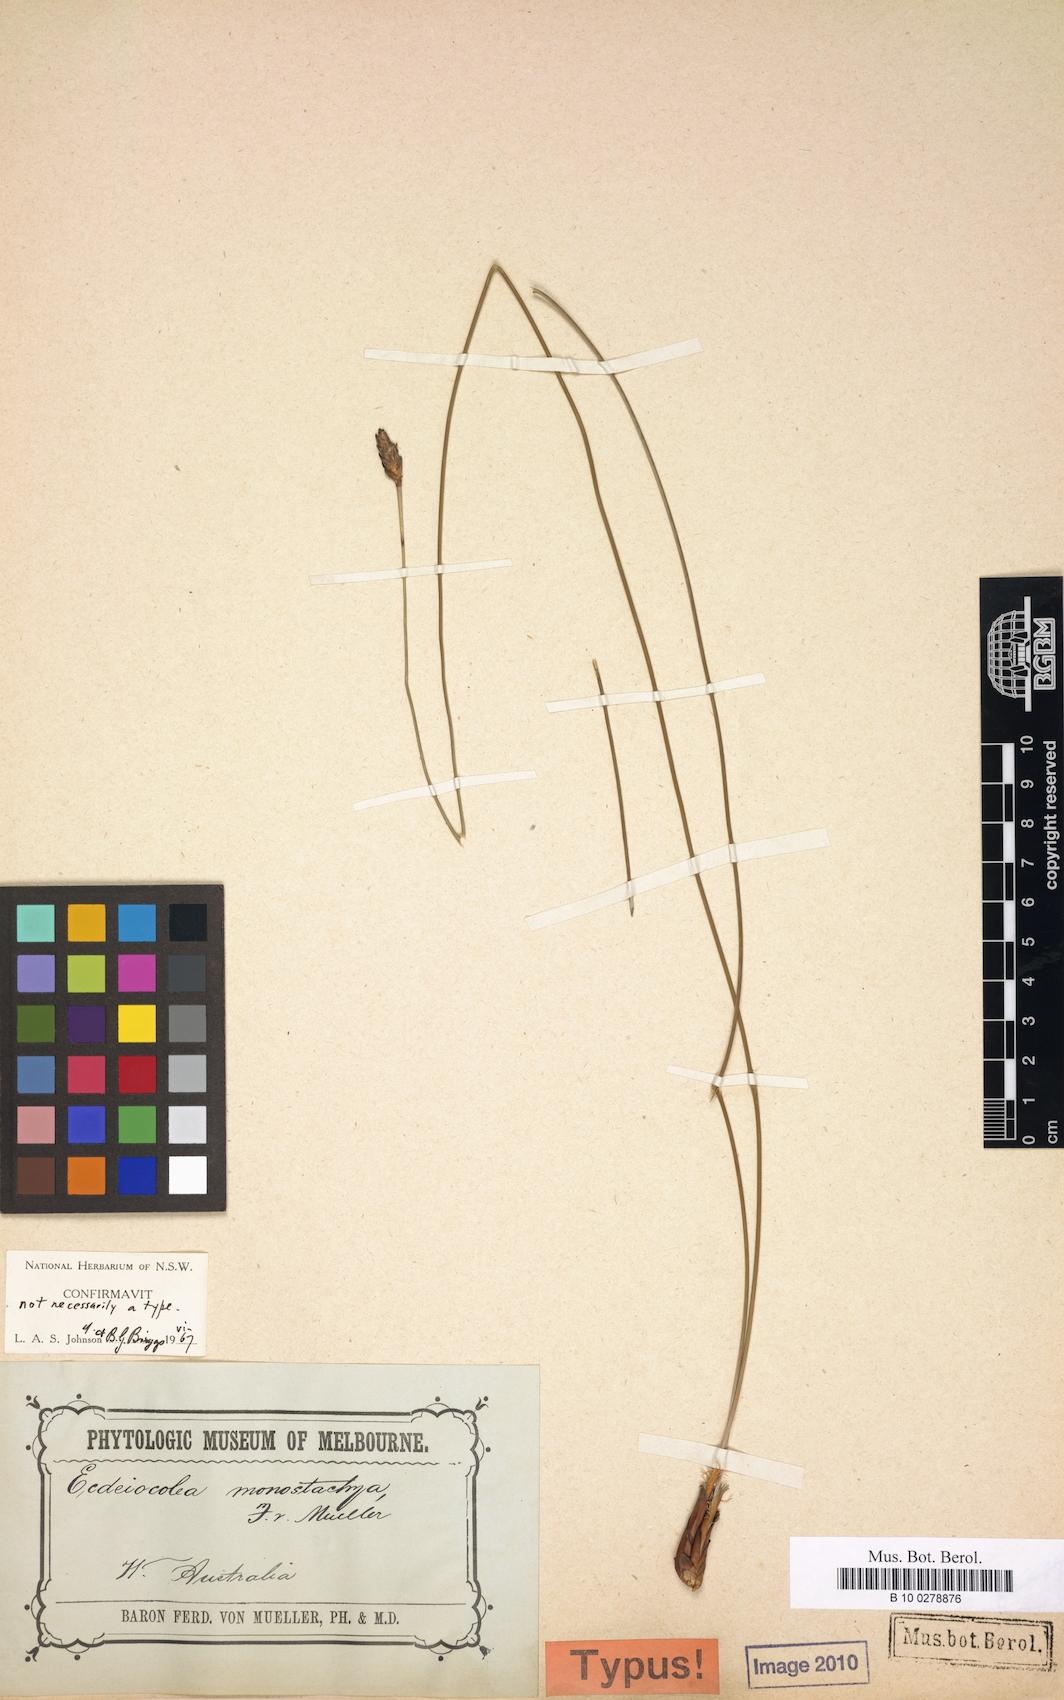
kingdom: Plantae
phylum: Tracheophyta
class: Liliopsida
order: Poales
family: Ecdeiocoleaceae
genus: Ecdeiocolea
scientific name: Ecdeiocolea monostachya
